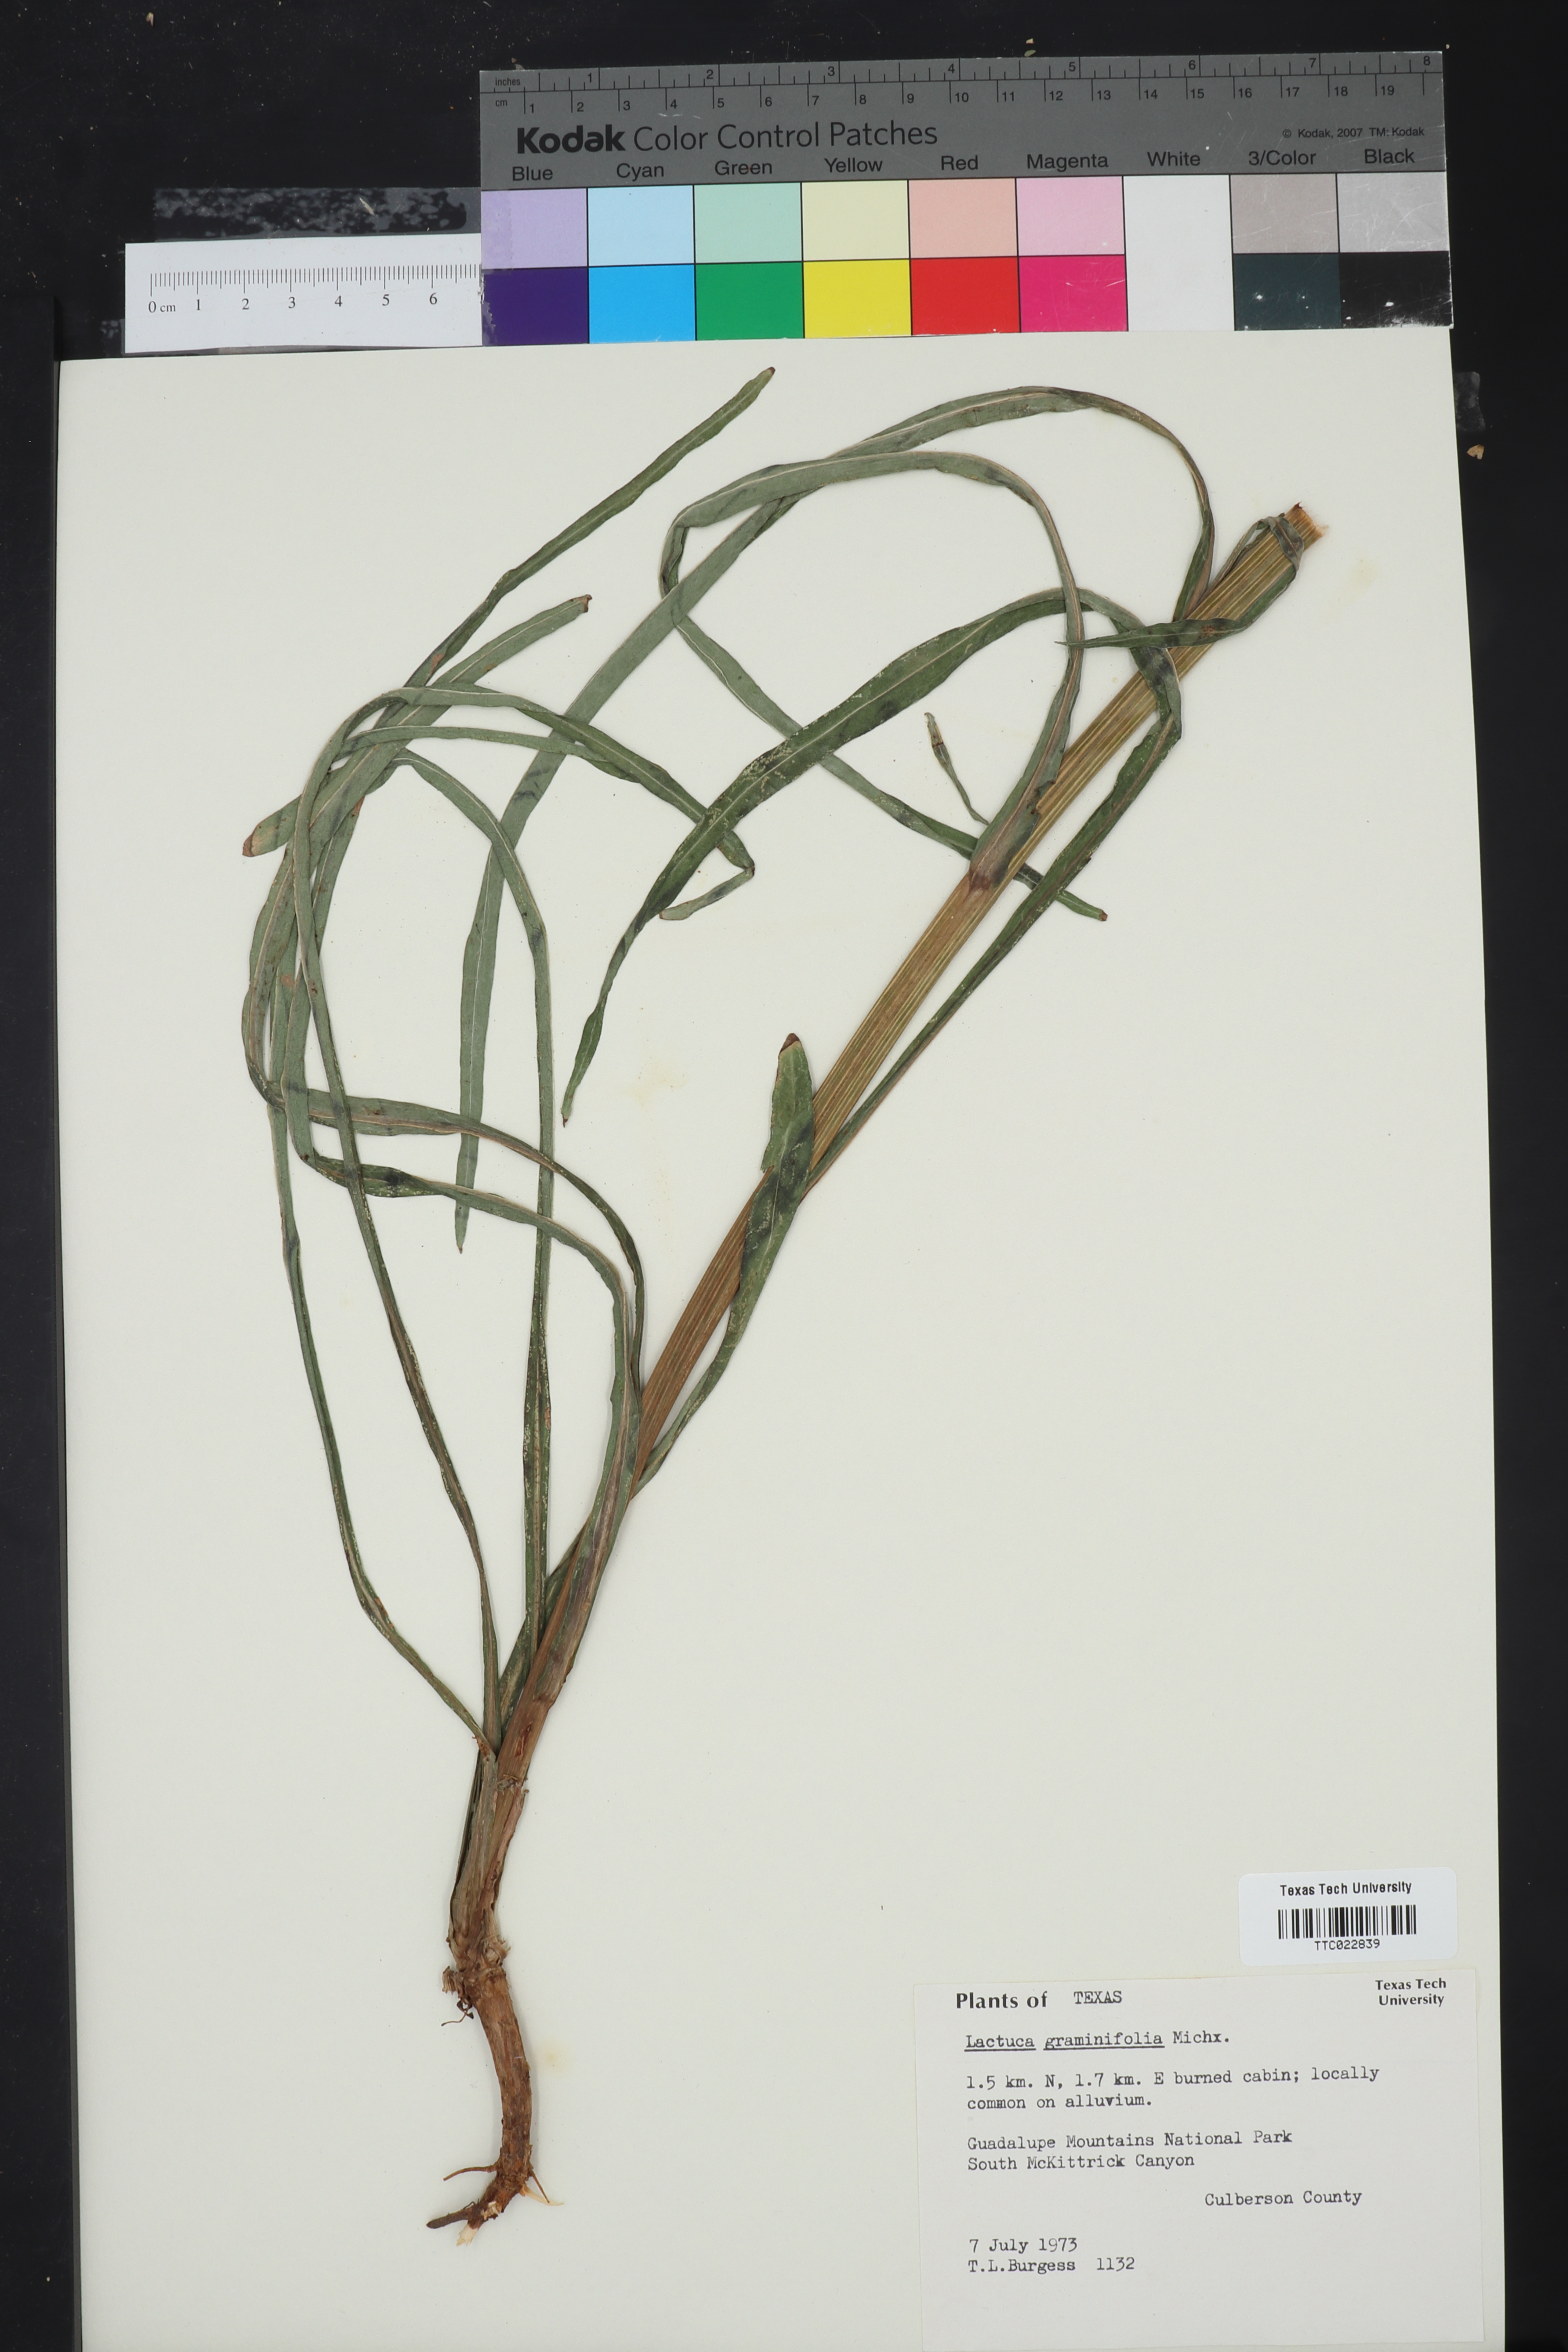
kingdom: Plantae
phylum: Tracheophyta
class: Magnoliopsida
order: Asterales
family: Asteraceae
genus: Lactuca
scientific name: Lactuca graminifolia
